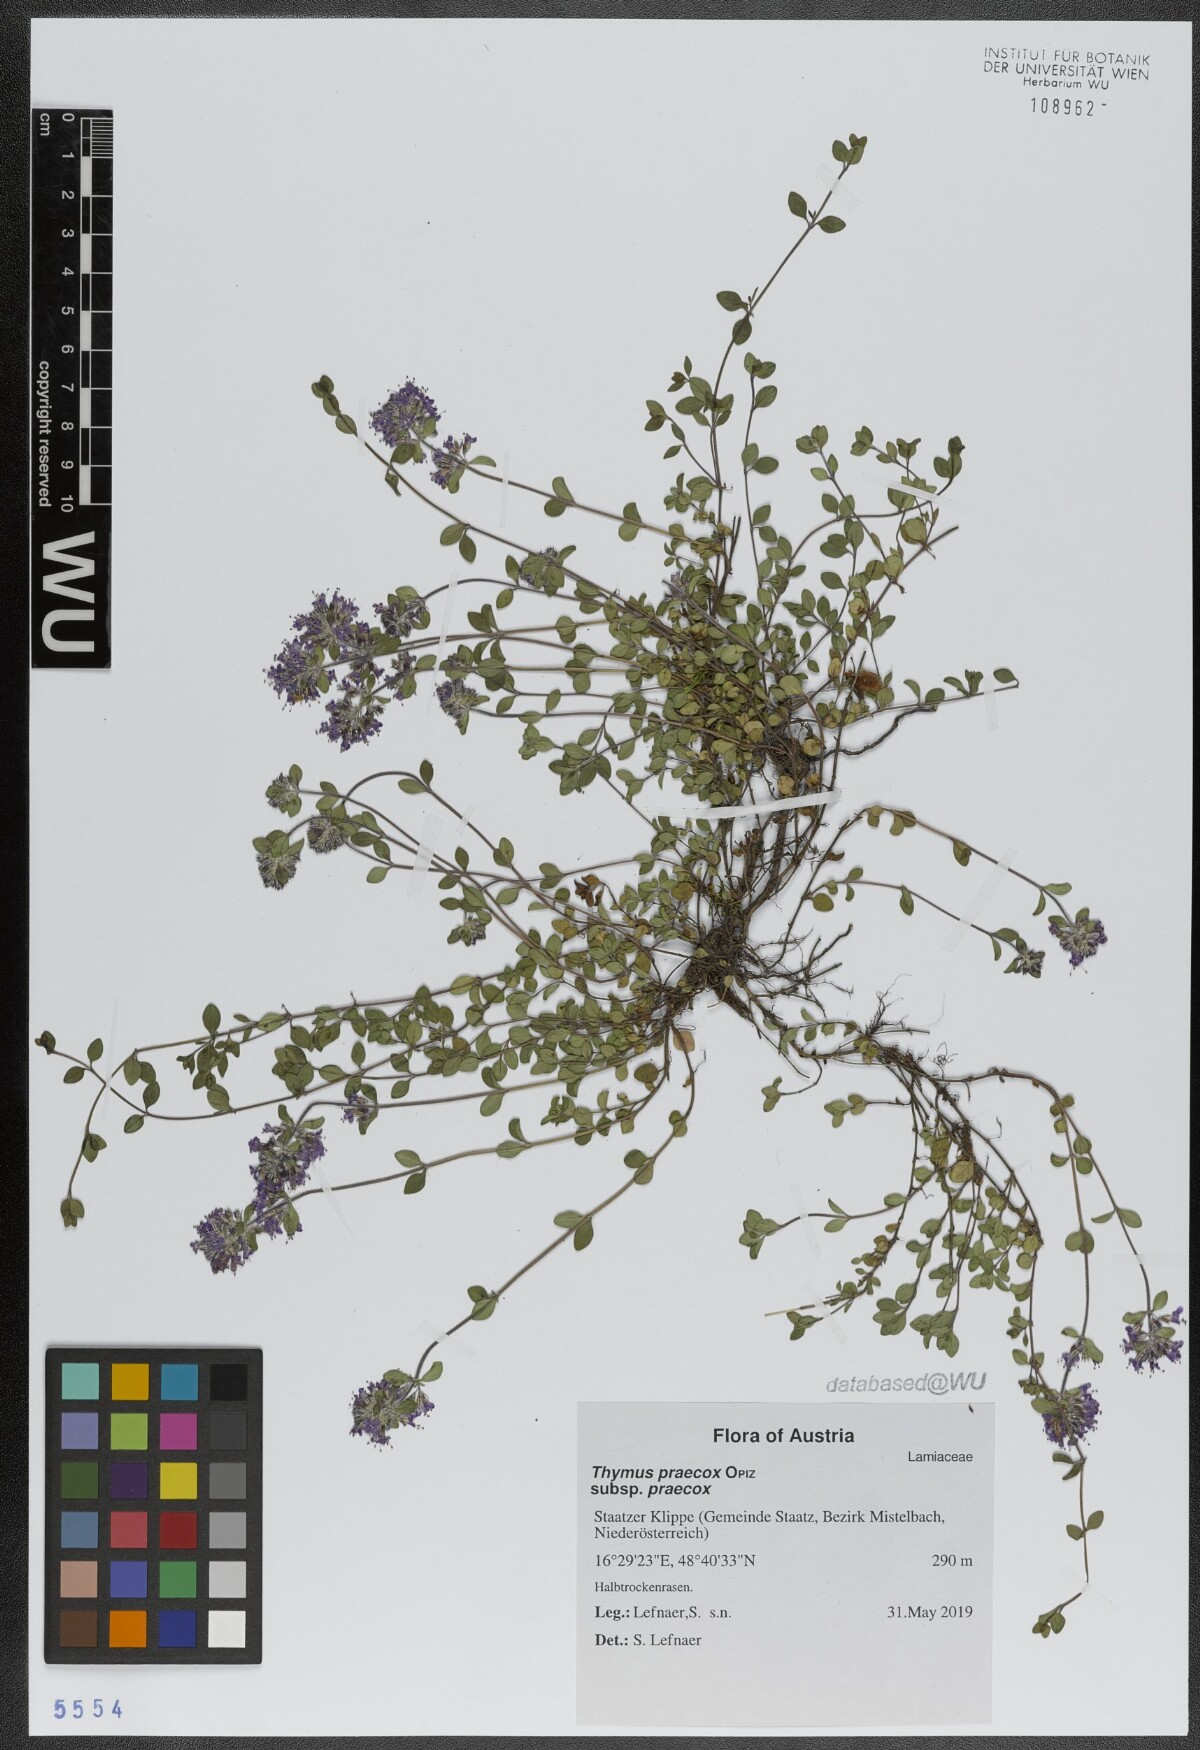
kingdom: Plantae
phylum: Tracheophyta
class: Magnoliopsida
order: Lamiales
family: Lamiaceae
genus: Thymus
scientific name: Thymus praecox
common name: Wild thyme
